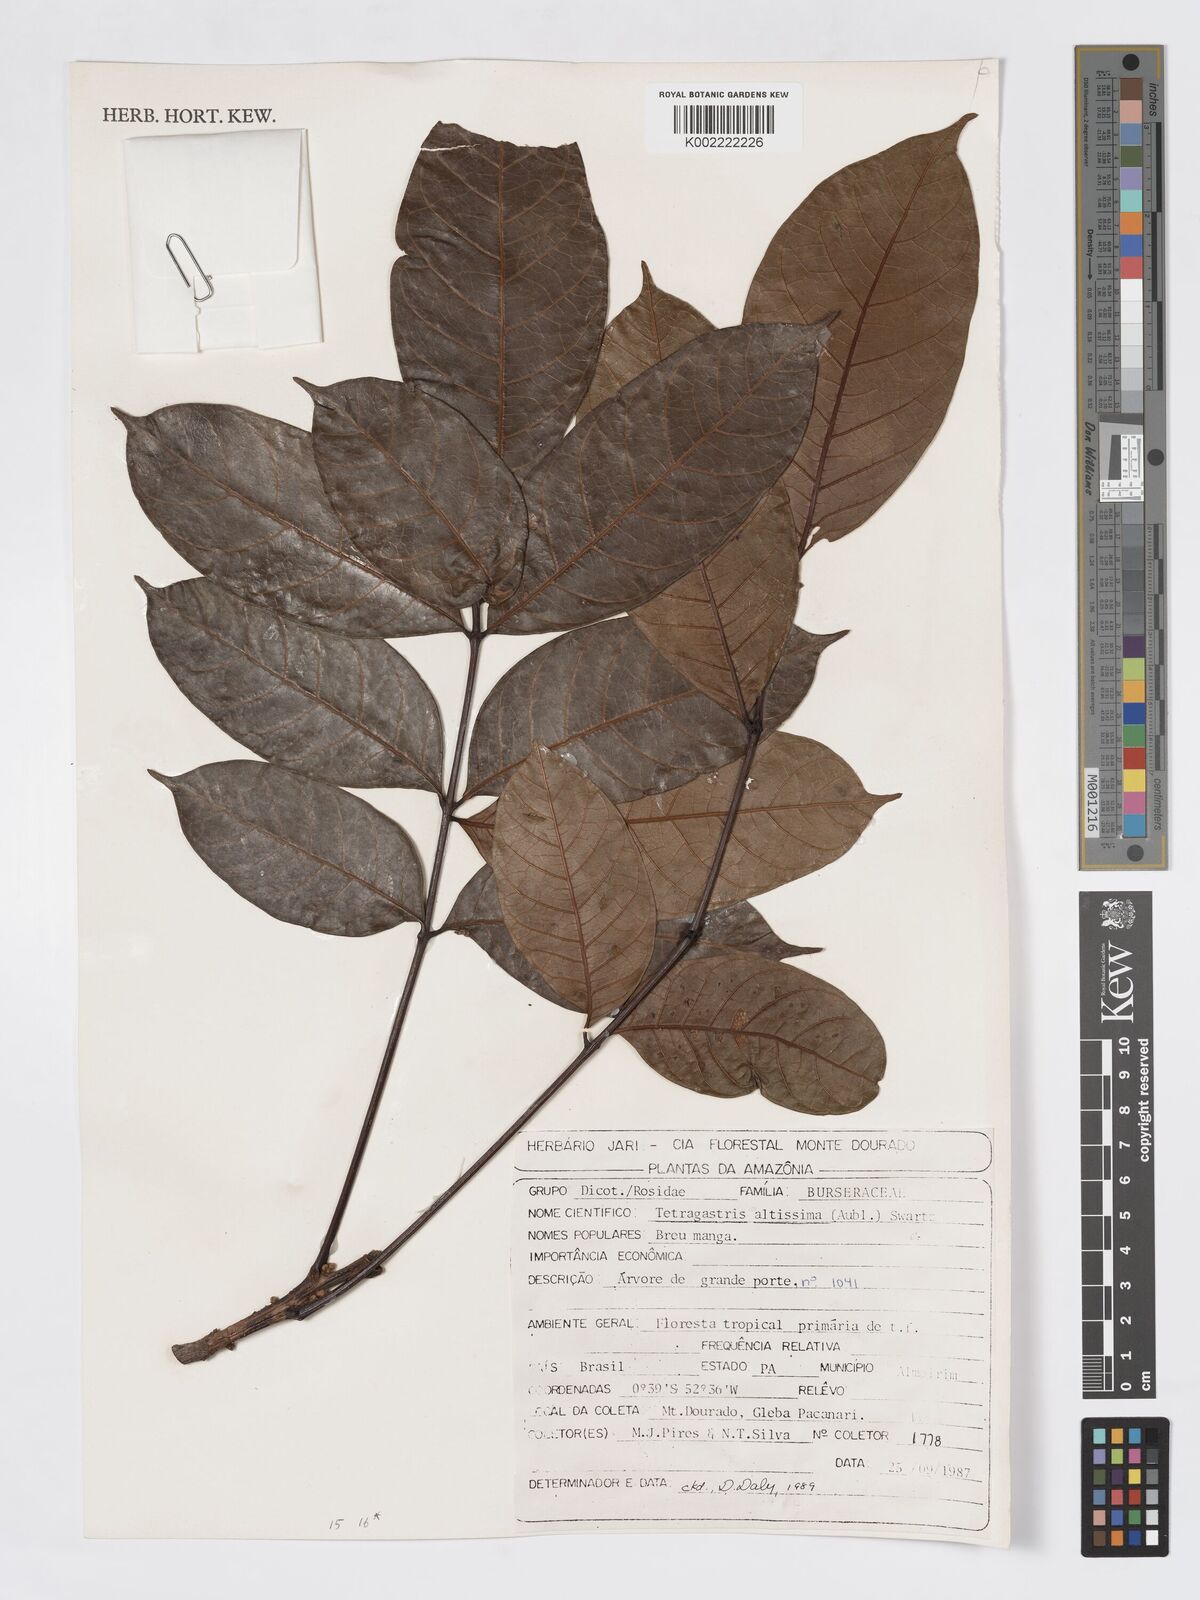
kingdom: Plantae
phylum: Tracheophyta
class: Magnoliopsida
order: Sapindales
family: Burseraceae
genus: Tetragastris
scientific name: Tetragastris altissima
